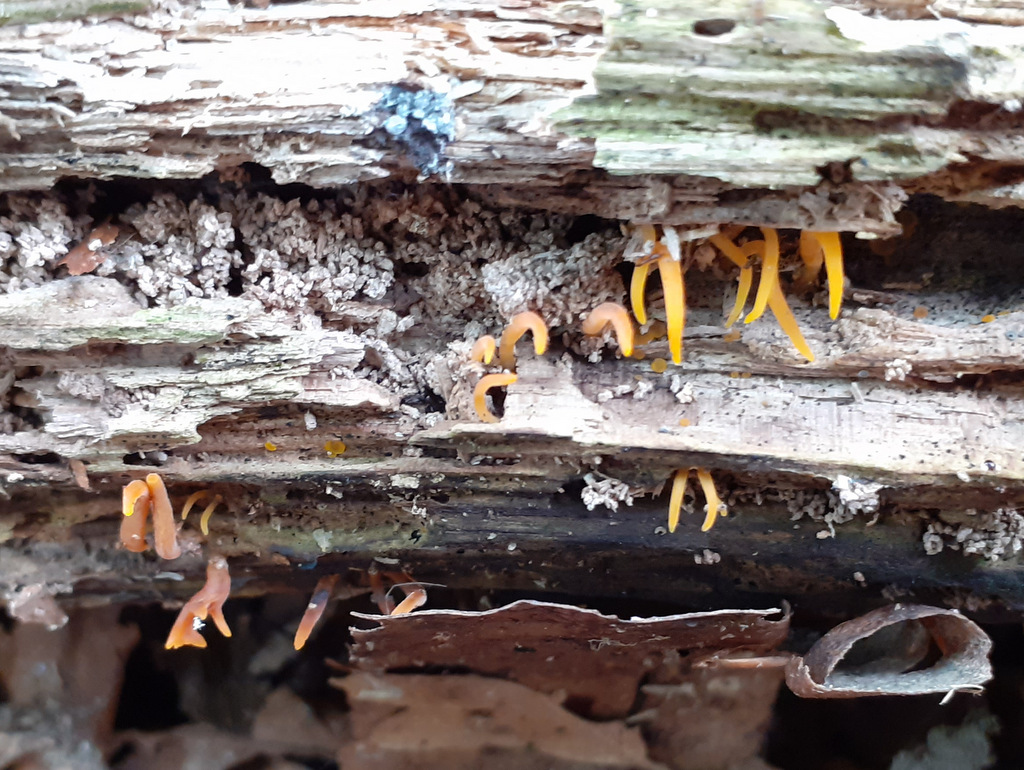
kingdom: Fungi
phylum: Basidiomycota
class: Dacrymycetes
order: Dacrymycetales
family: Dacrymycetaceae
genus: Calocera
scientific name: Calocera cornea
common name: liden guldgaffel
